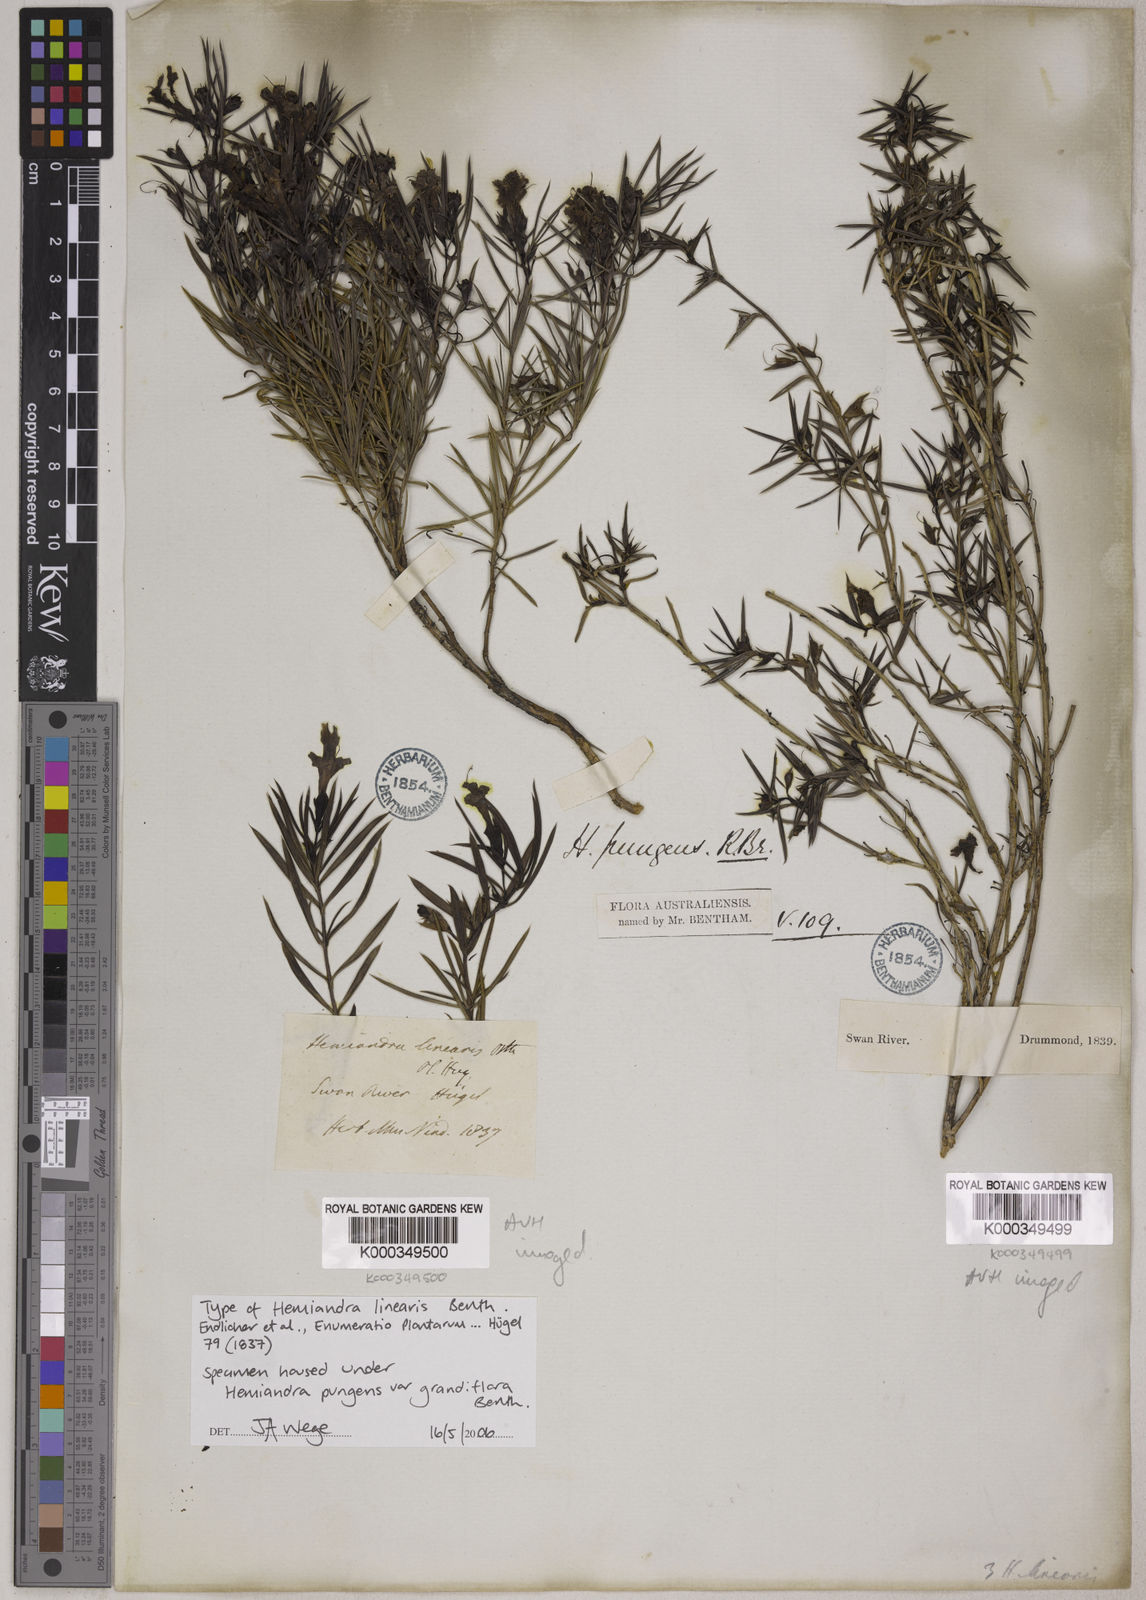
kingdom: Plantae
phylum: Tracheophyta
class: Magnoliopsida
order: Lamiales
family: Lamiaceae
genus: Hemiandra
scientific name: Hemiandra pungens
